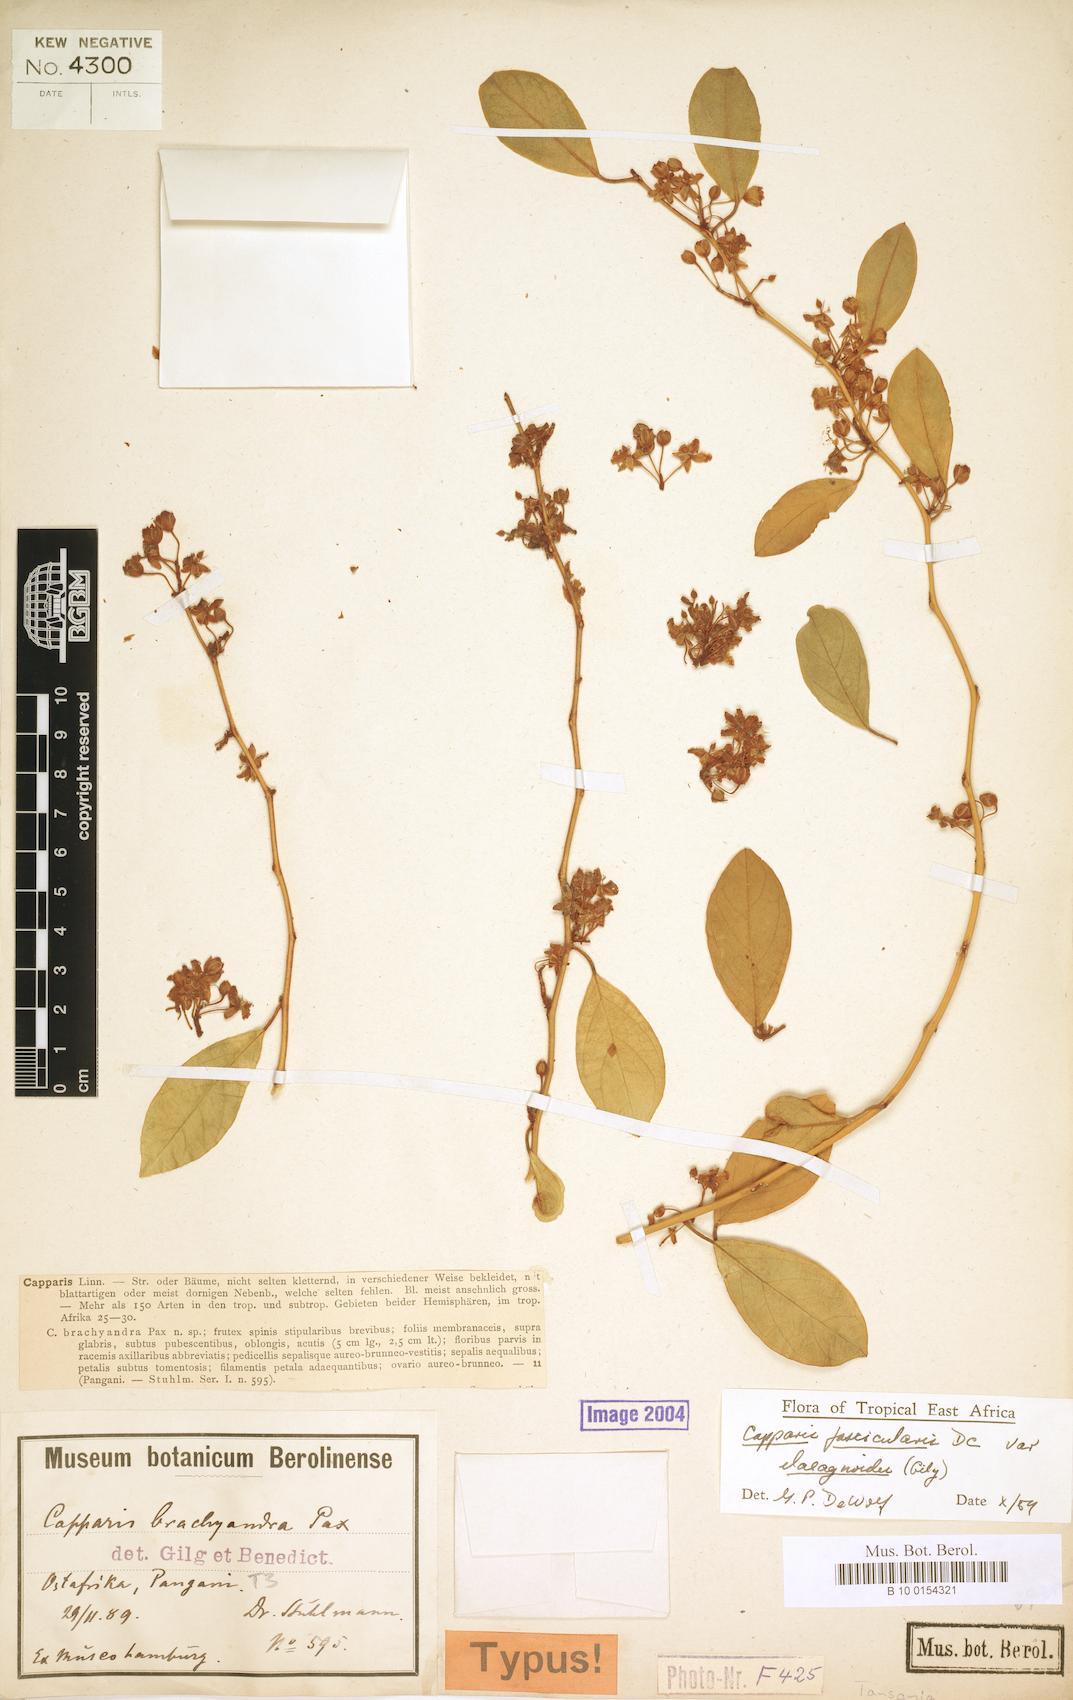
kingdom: Plantae
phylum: Tracheophyta
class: Magnoliopsida
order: Brassicales
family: Capparaceae
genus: Capparis
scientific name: Capparis fascicularis
